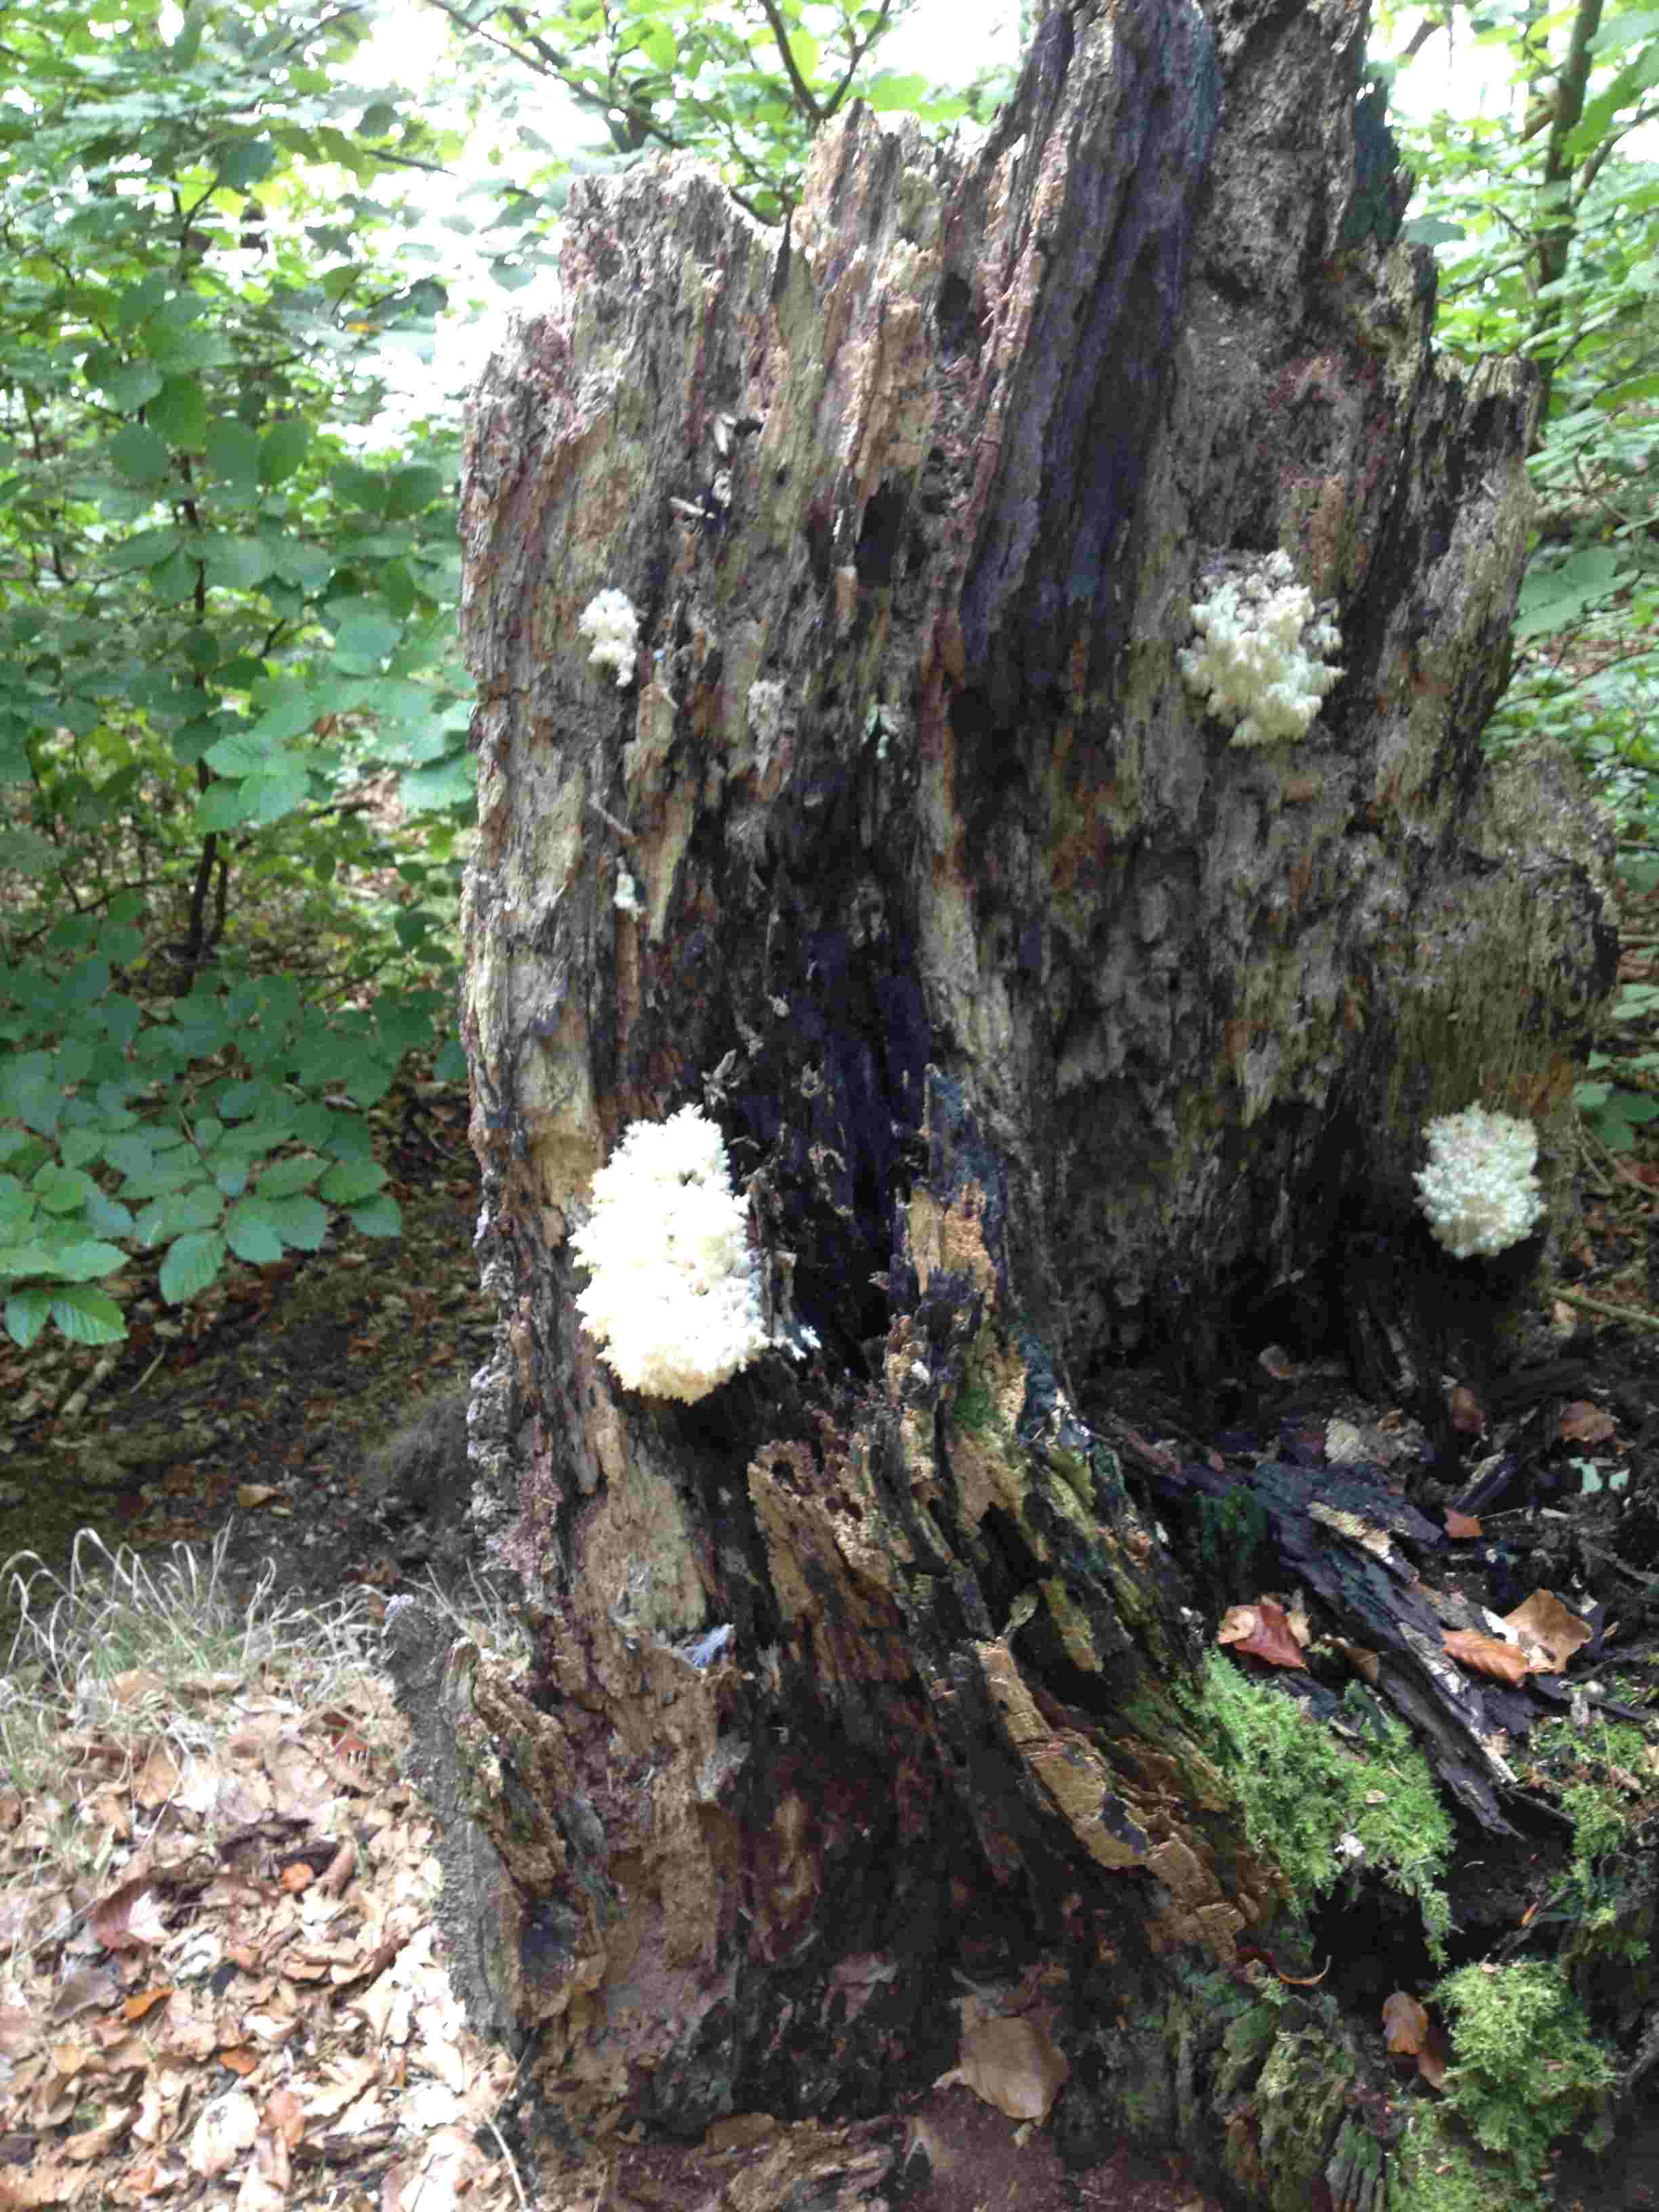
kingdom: Fungi
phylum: Basidiomycota
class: Agaricomycetes
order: Russulales
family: Hericiaceae
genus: Hericium
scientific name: Hericium coralloides
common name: koralpigsvamp
